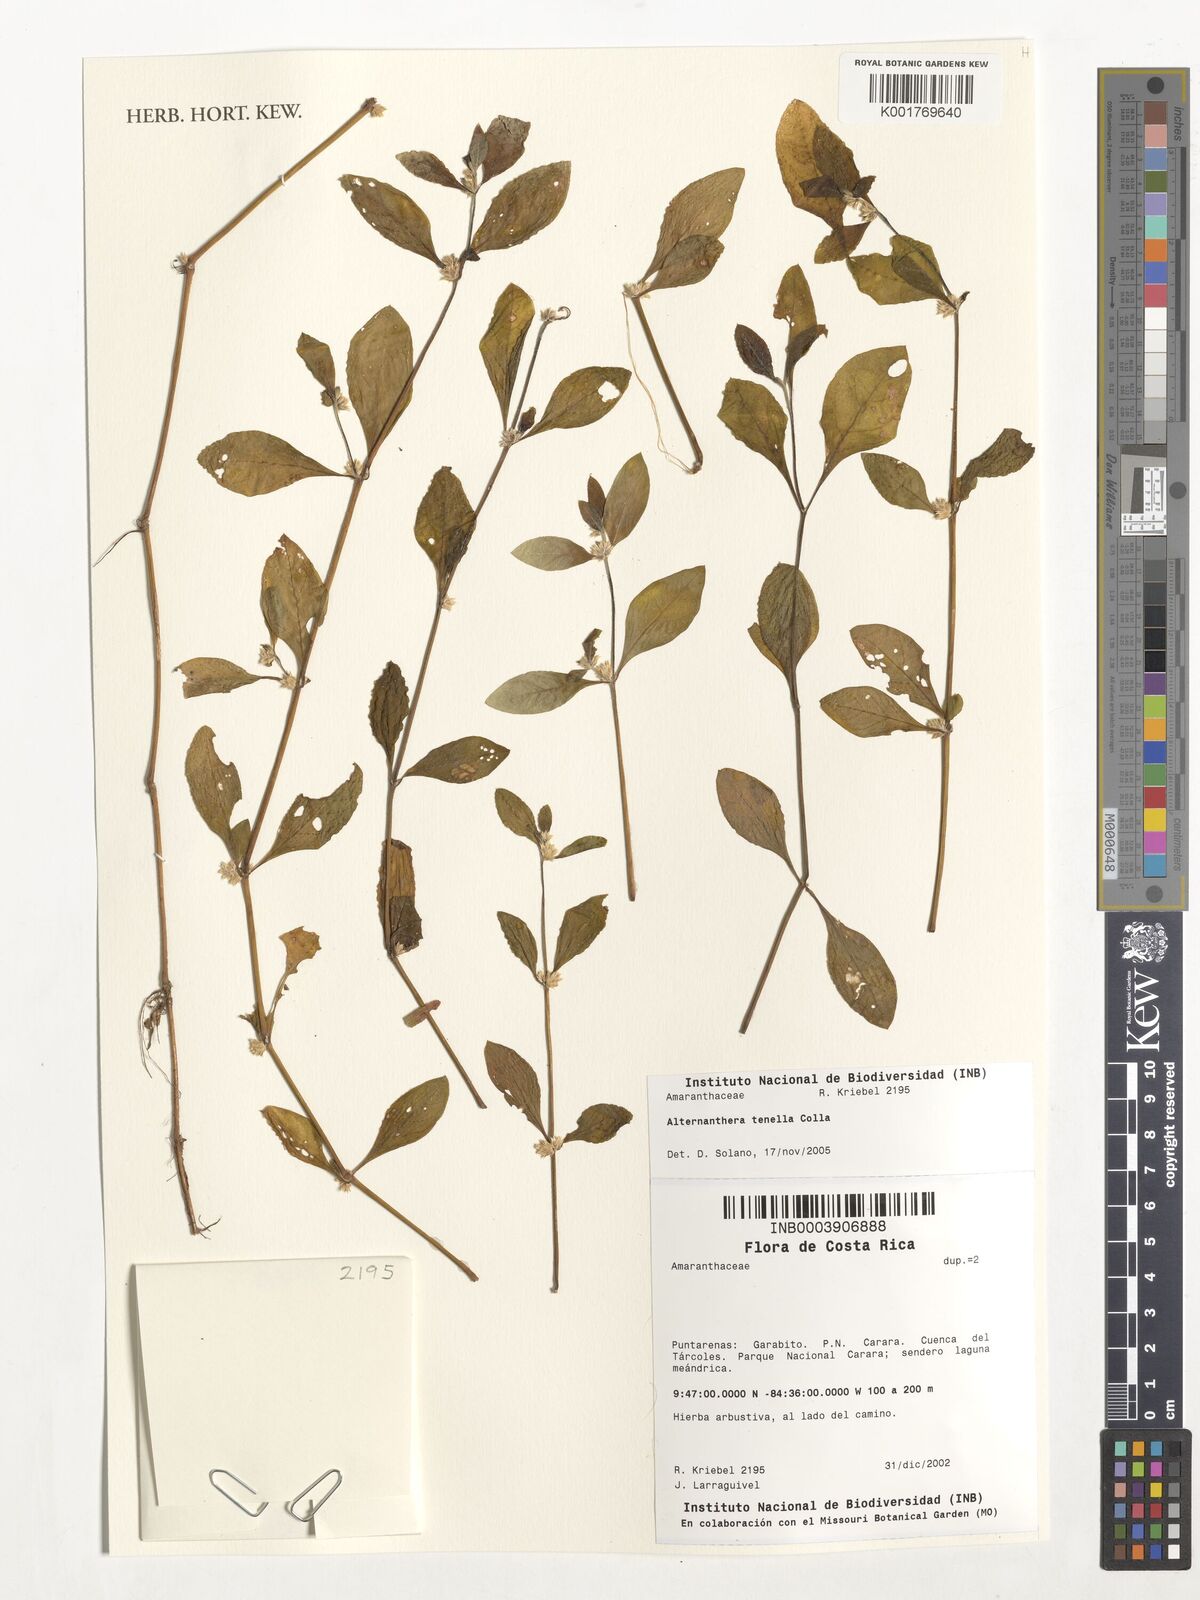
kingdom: Plantae
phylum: Tracheophyta
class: Magnoliopsida
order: Caryophyllales
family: Amaranthaceae
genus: Alternanthera
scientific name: Alternanthera ficoidea
